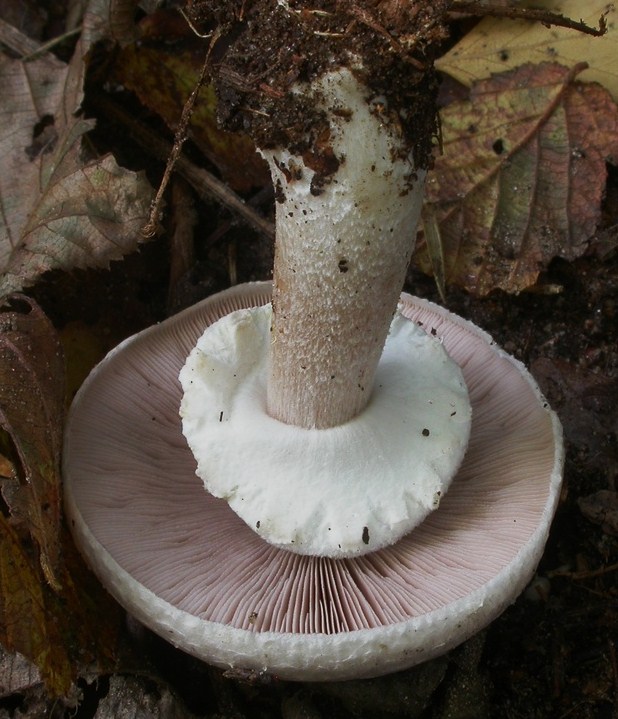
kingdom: Fungi
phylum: Basidiomycota
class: Agaricomycetes
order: Agaricales
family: Agaricaceae
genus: Agaricus
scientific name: Agaricus arvensis
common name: ager-champignon
